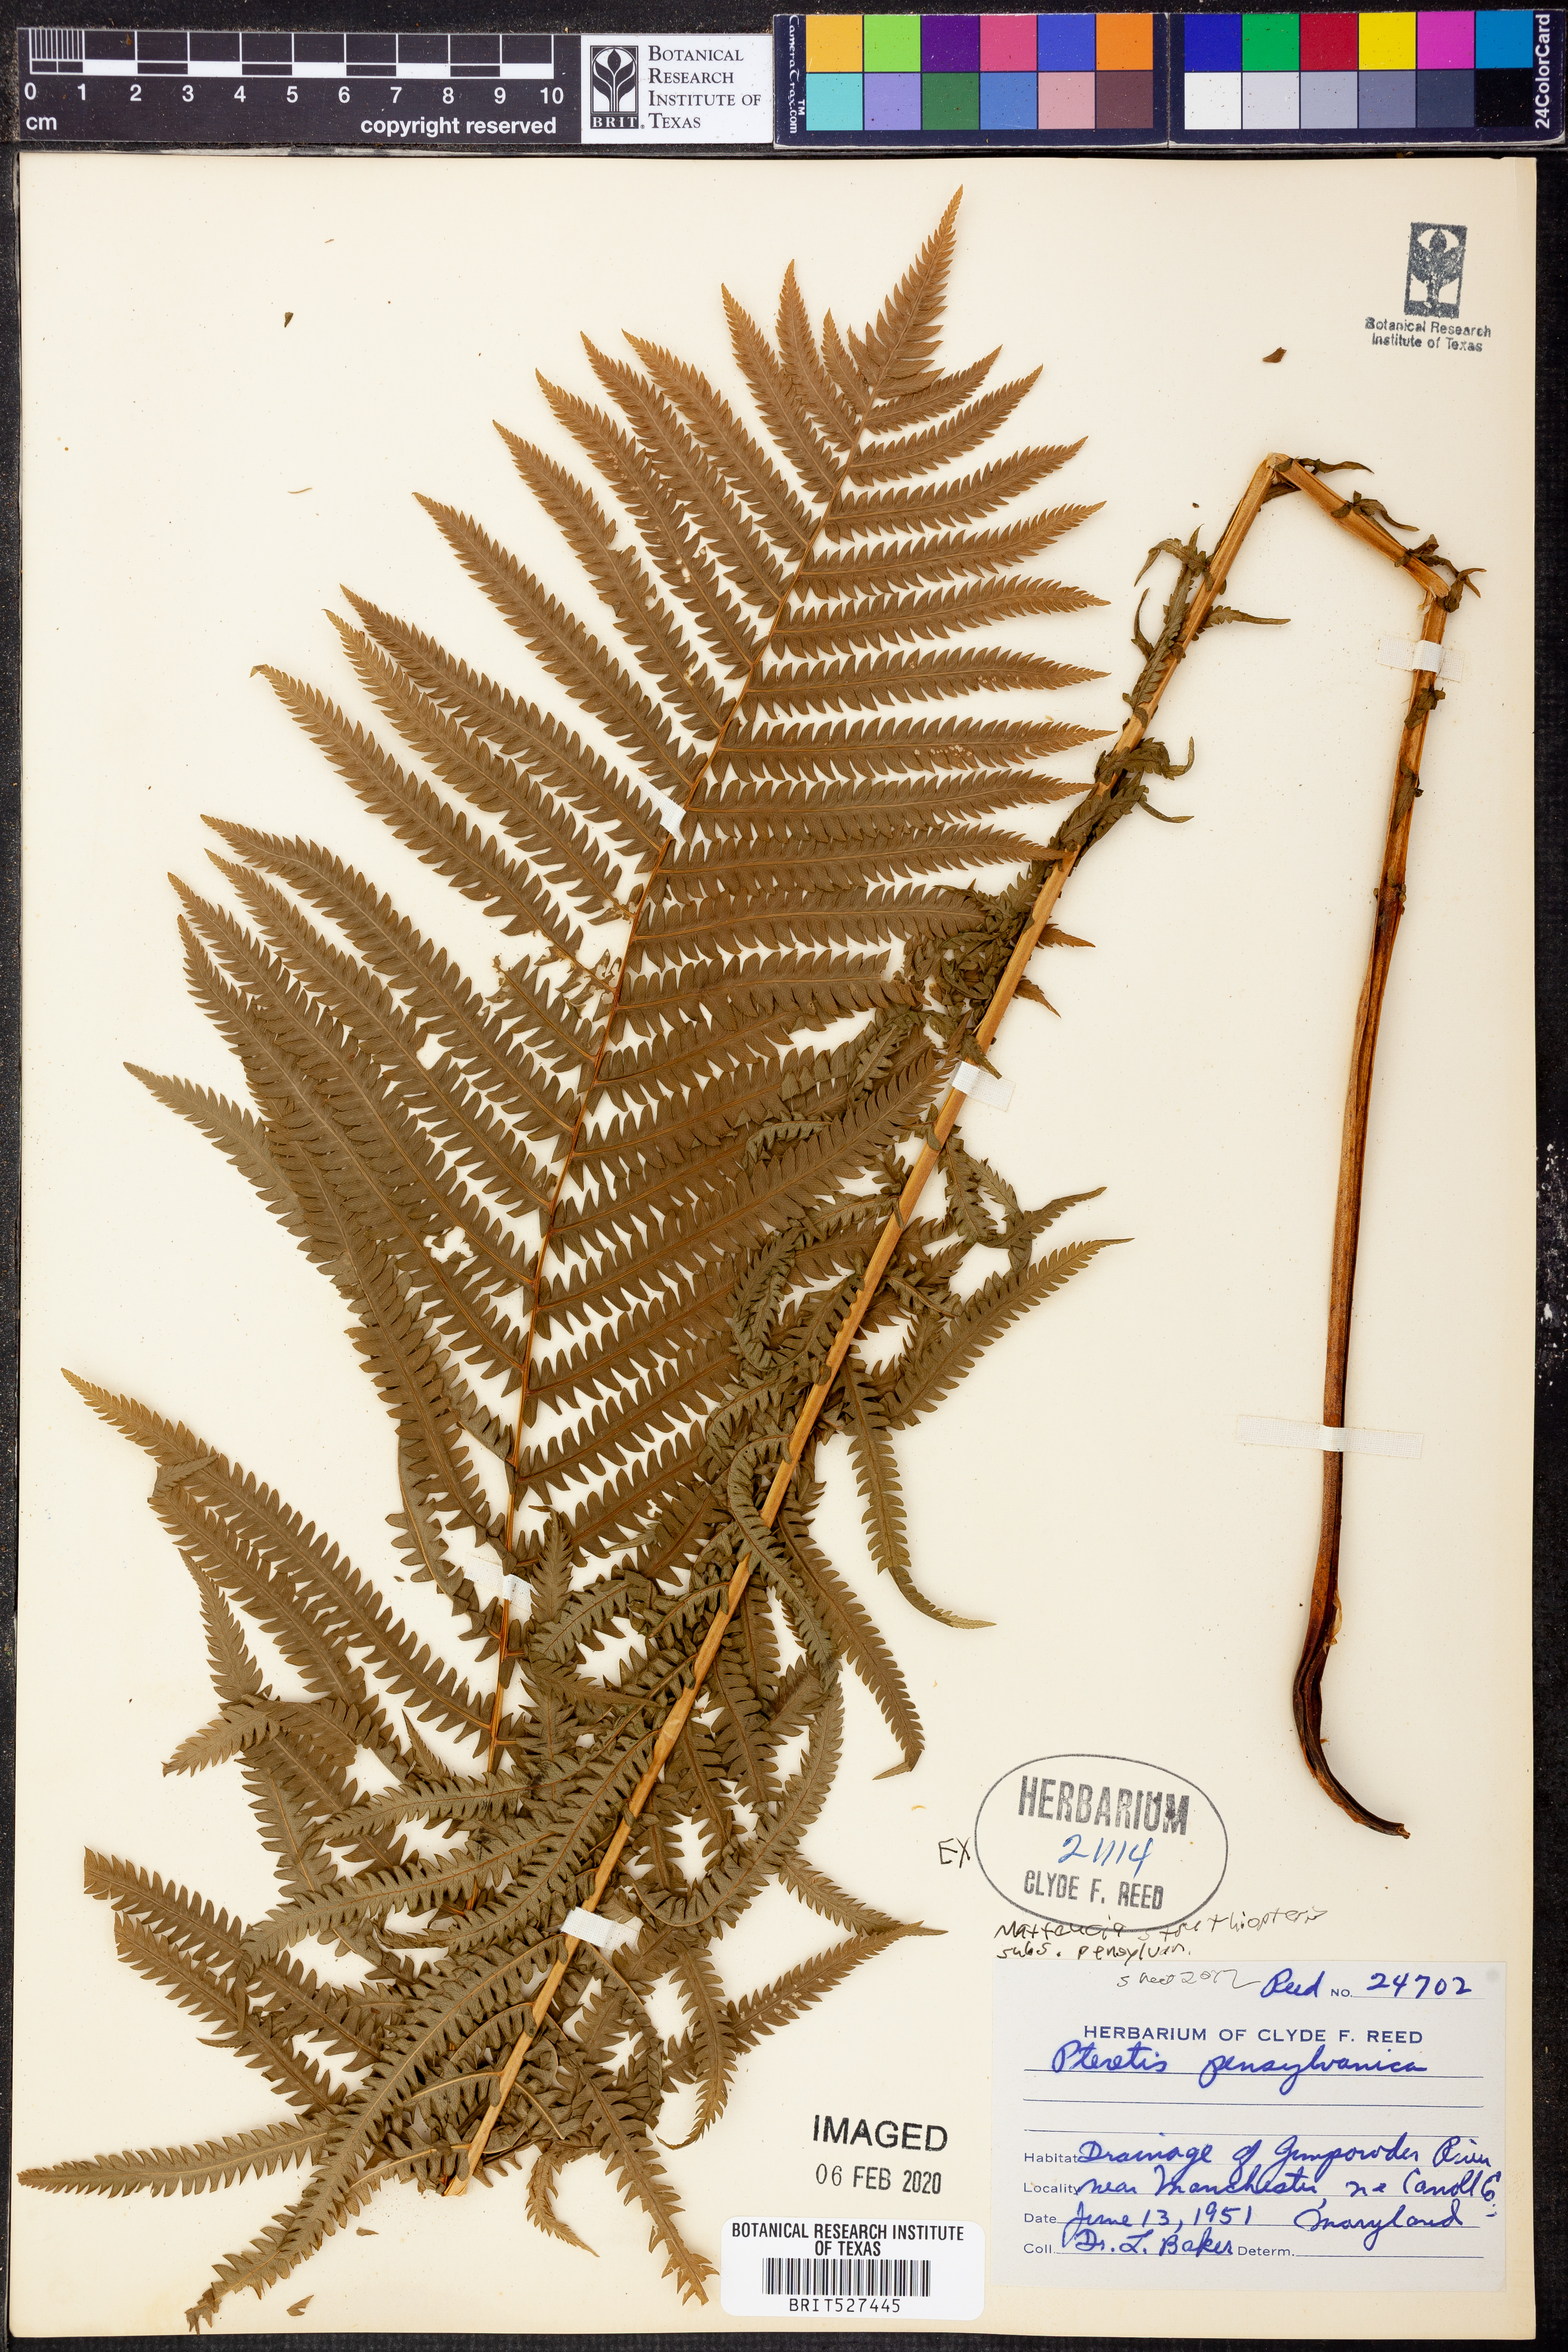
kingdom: Plantae
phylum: Tracheophyta
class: Polypodiopsida
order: Polypodiales
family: Onocleaceae
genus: Matteuccia
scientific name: Matteuccia pensylvanica
